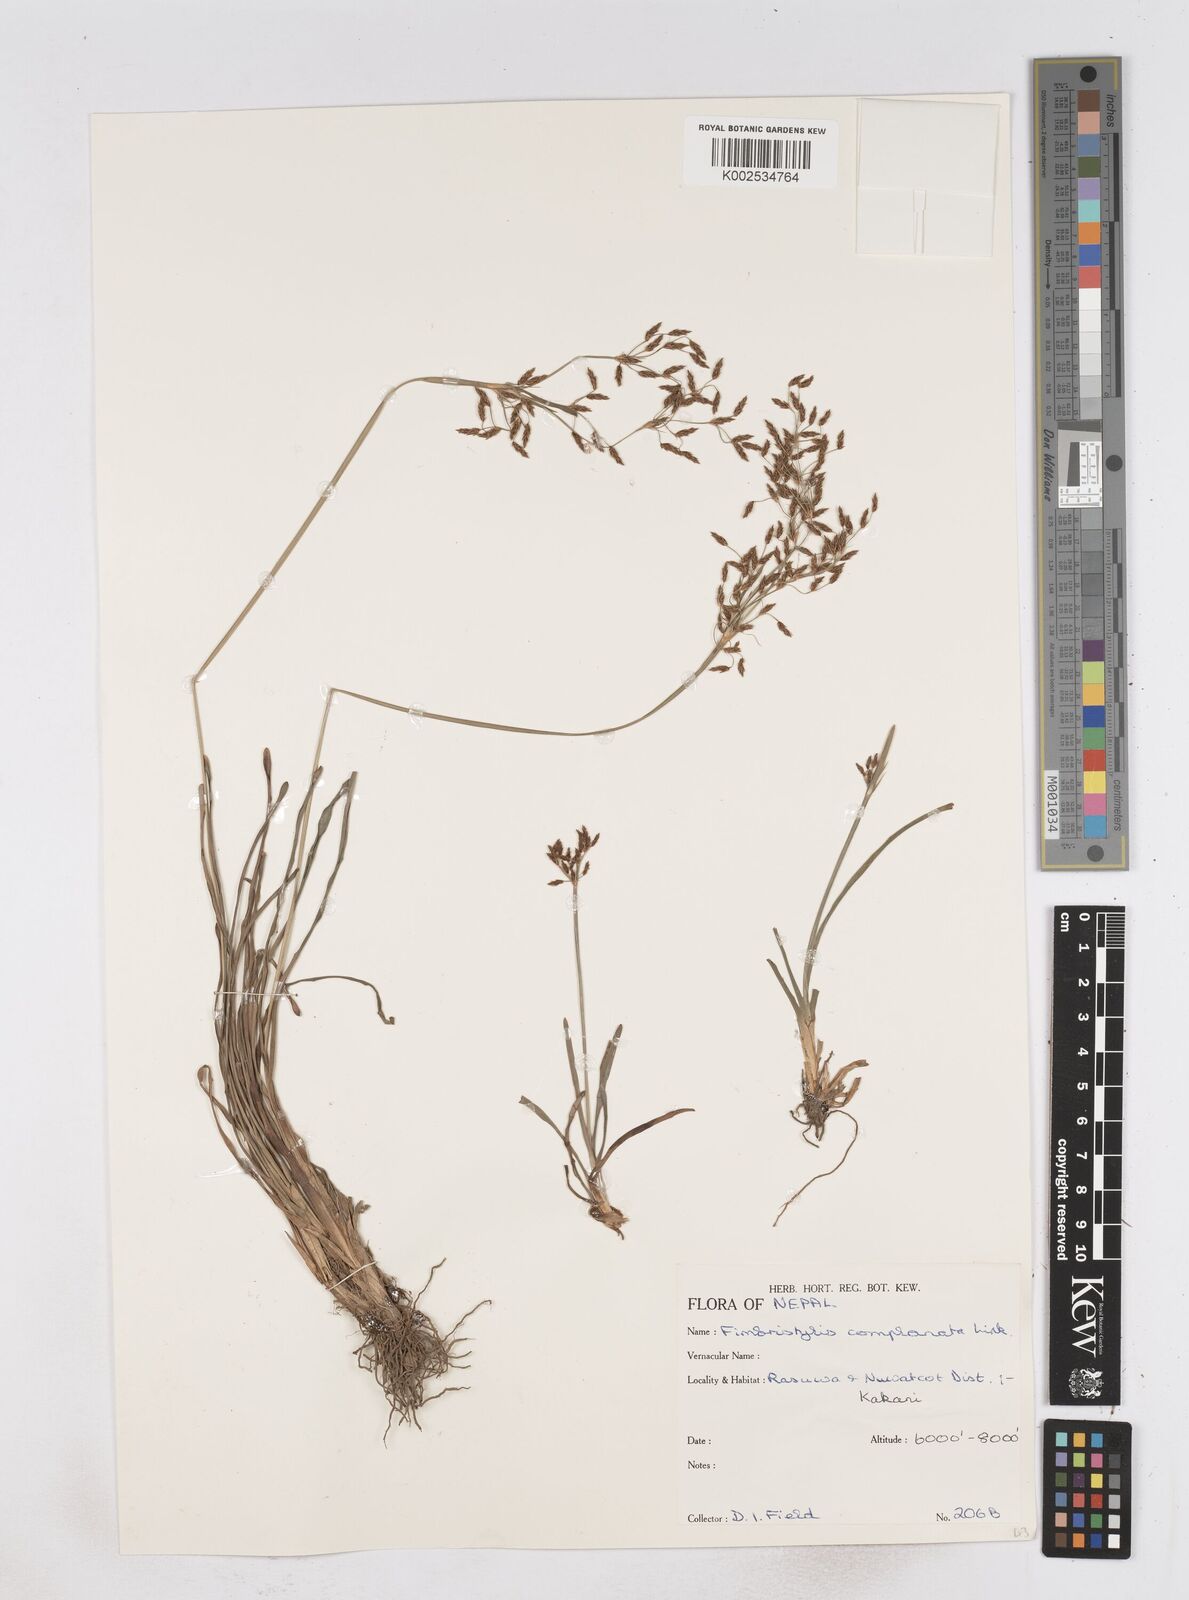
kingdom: Plantae
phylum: Tracheophyta
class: Liliopsida
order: Poales
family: Cyperaceae
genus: Fimbristylis
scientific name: Fimbristylis complanata
